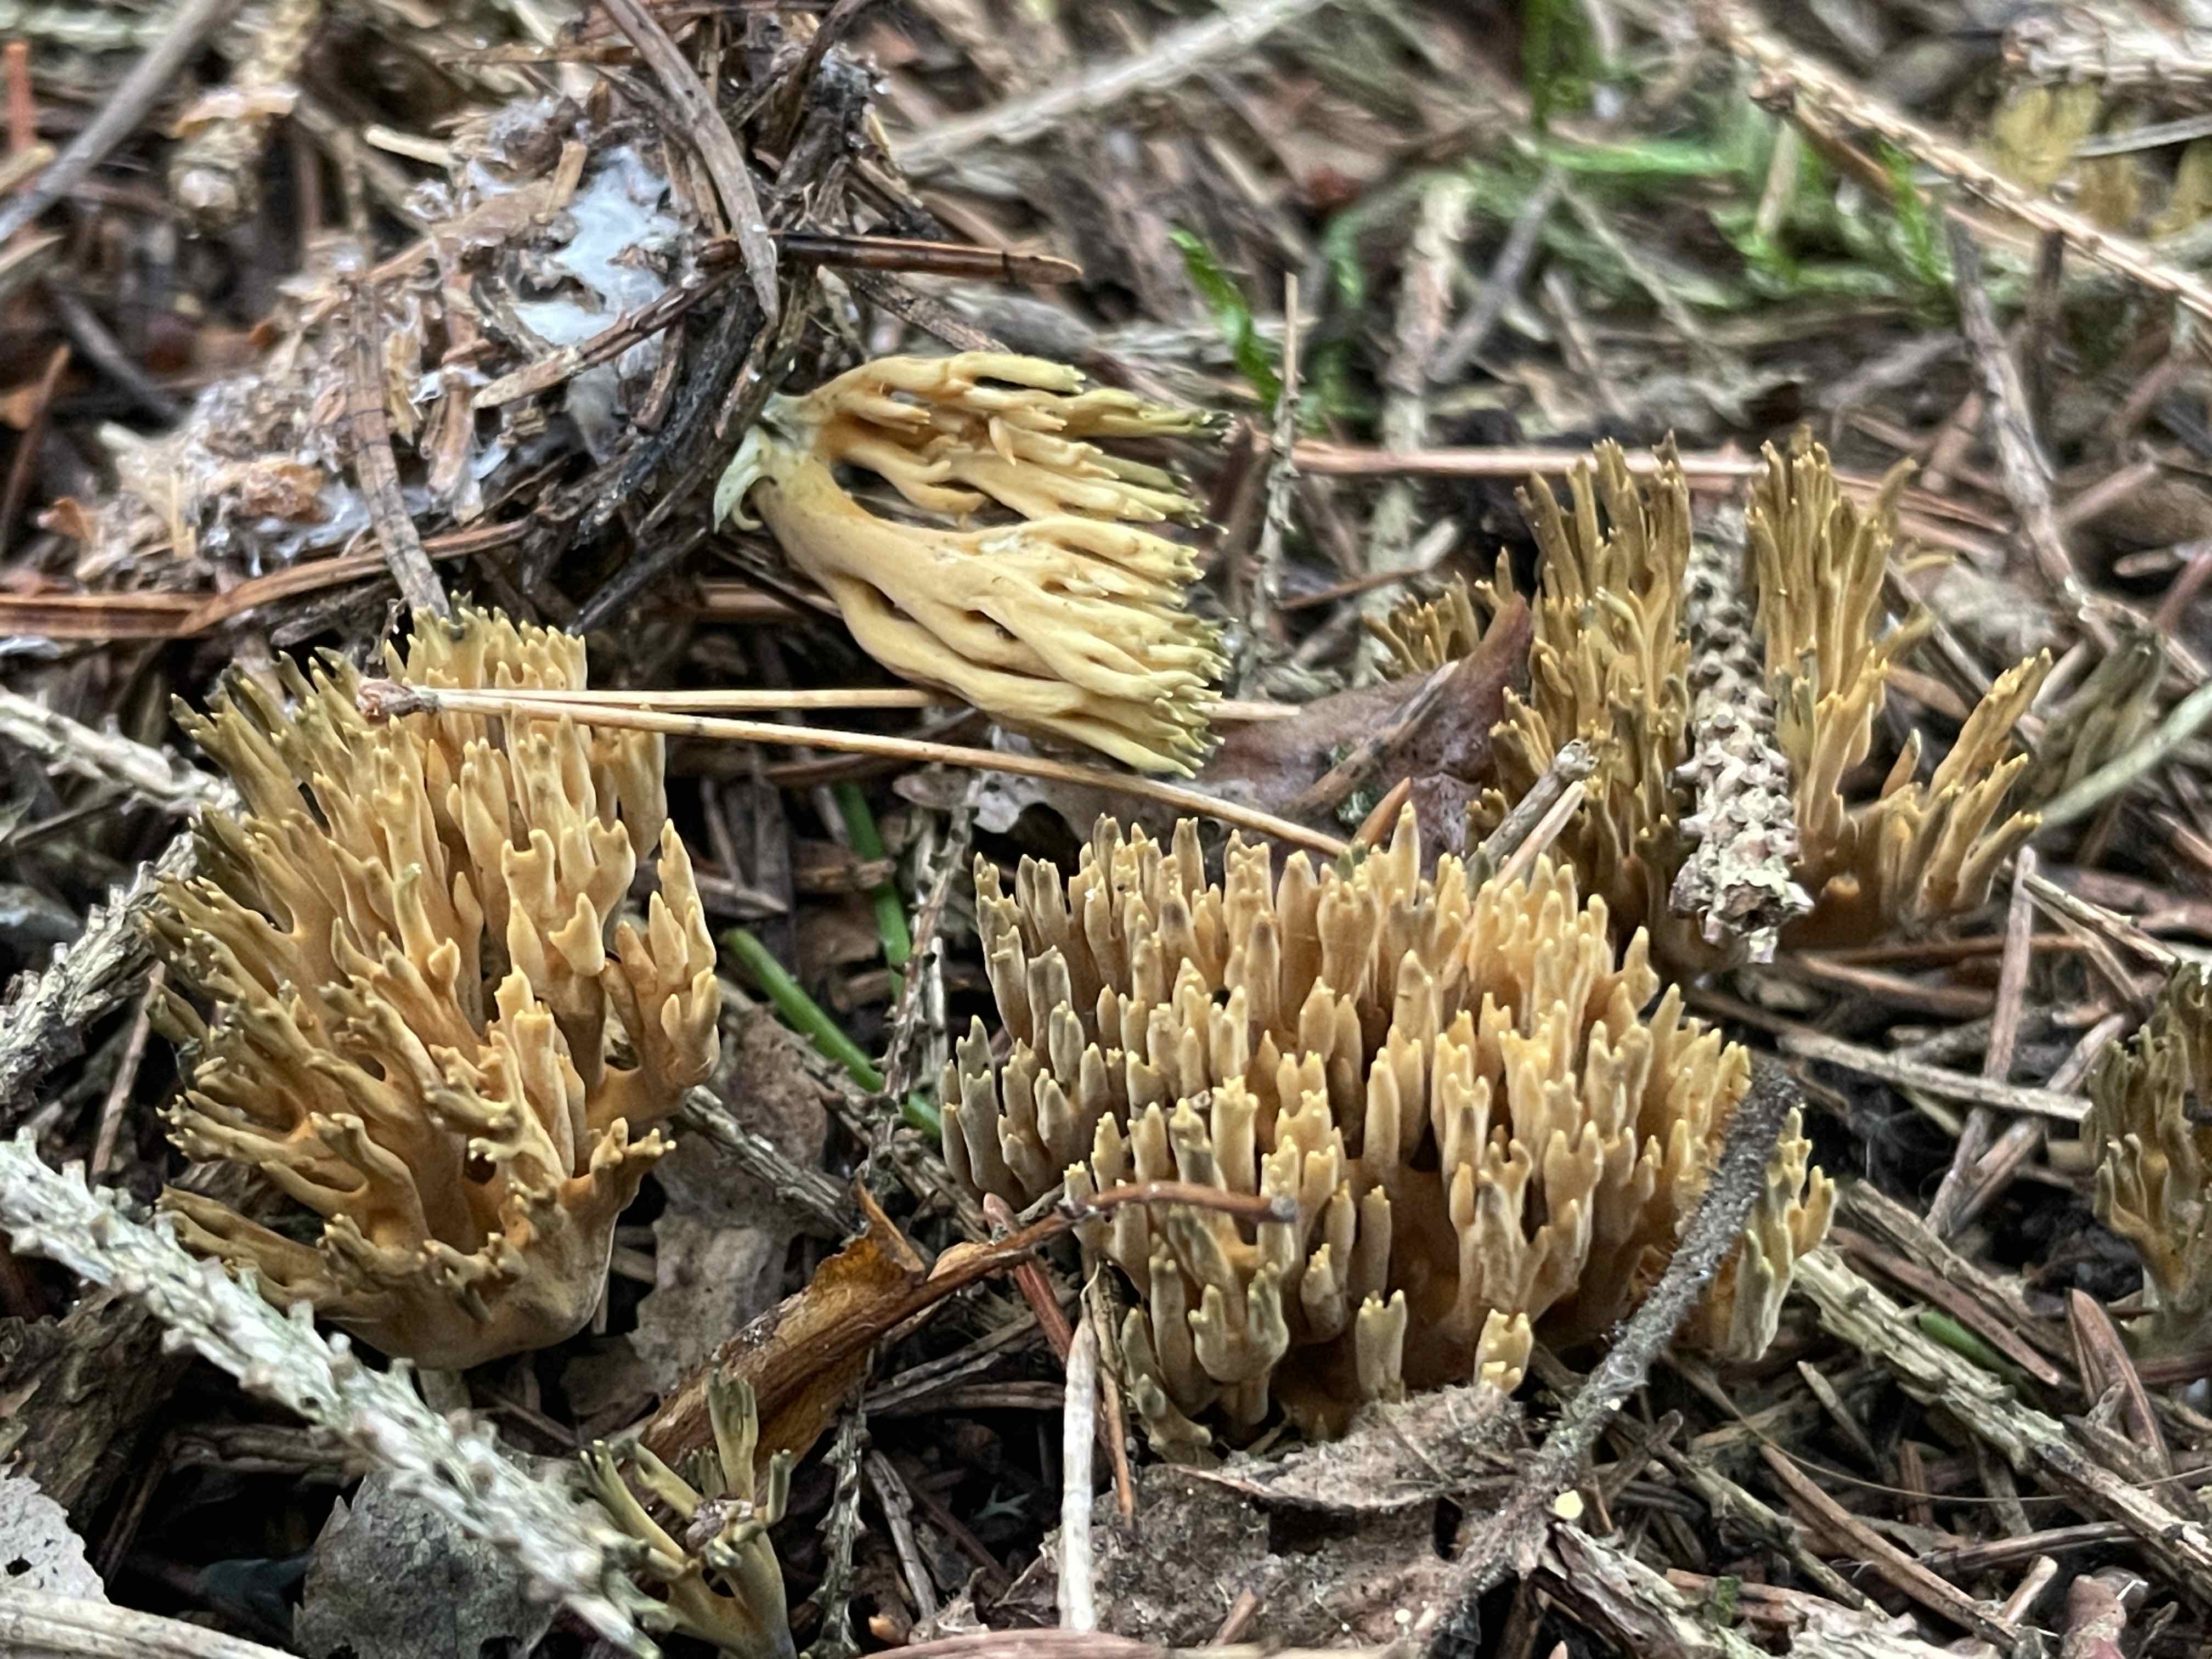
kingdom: Fungi
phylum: Basidiomycota
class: Agaricomycetes
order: Gomphales
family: Gomphaceae
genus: Phaeoclavulina
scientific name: Phaeoclavulina abietina
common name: gulgrøn koralsvamp
